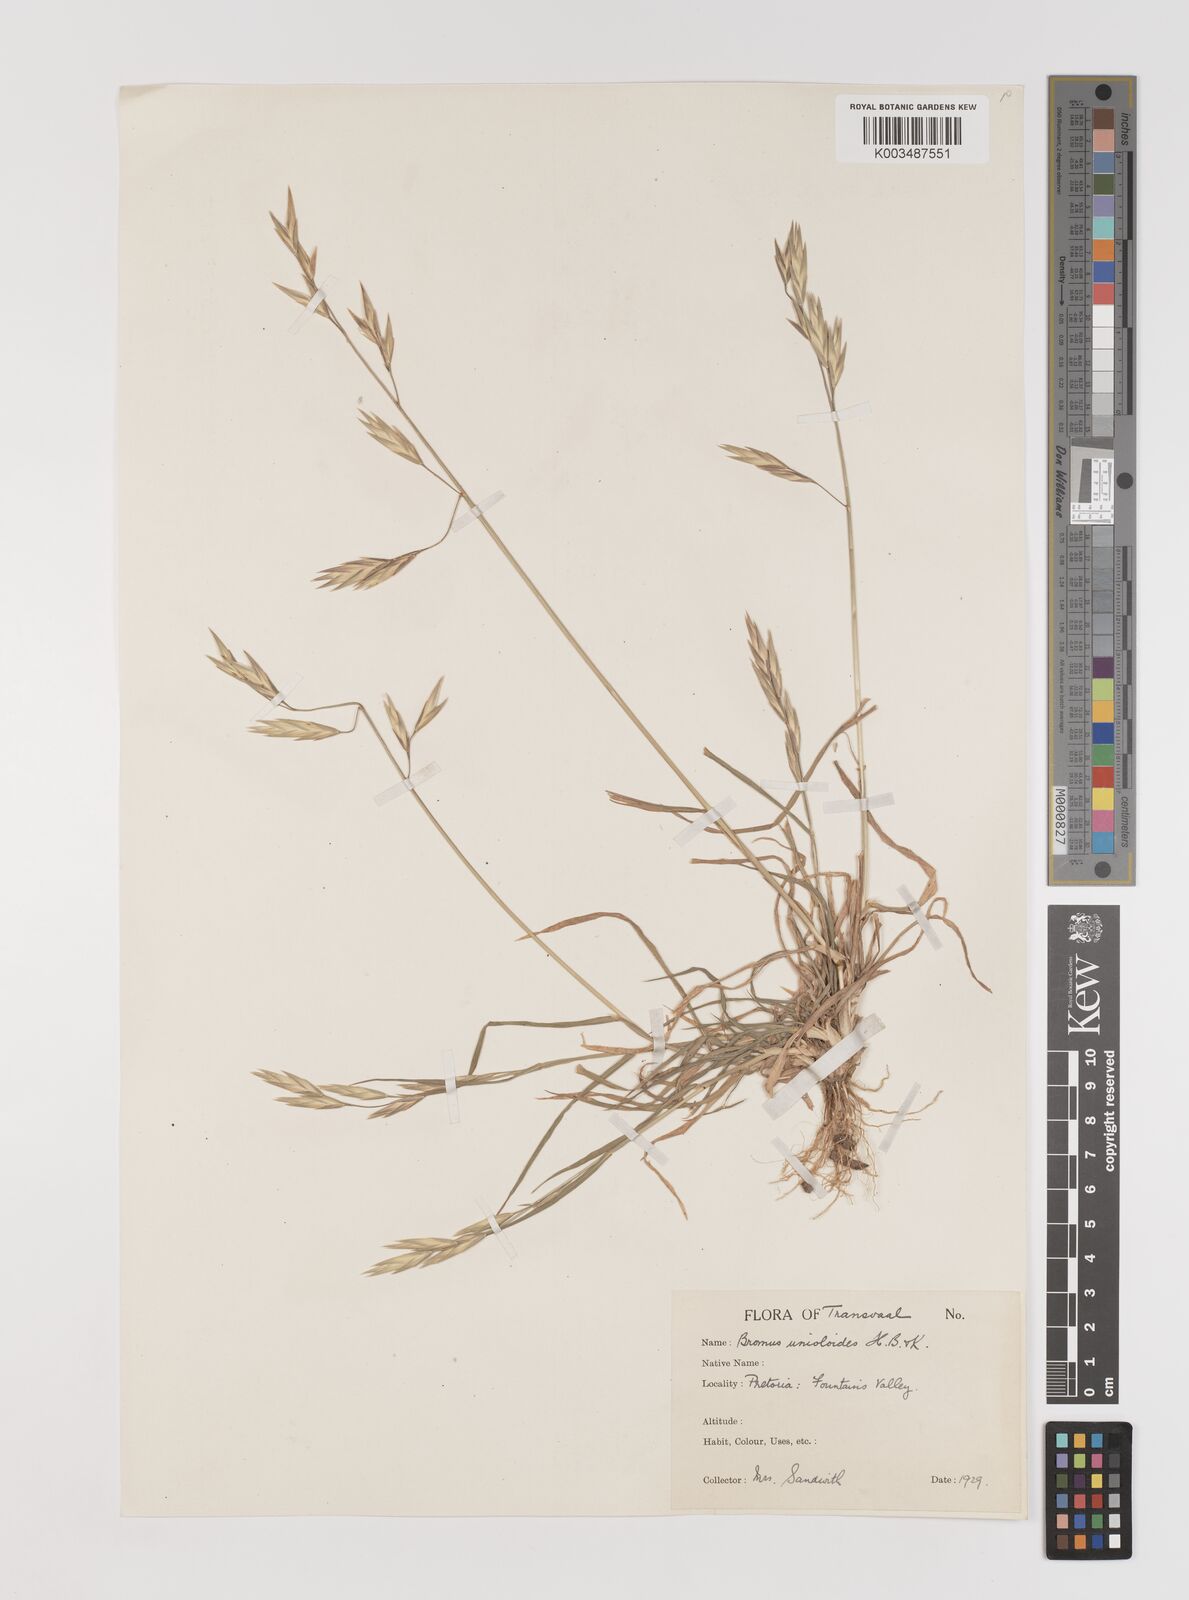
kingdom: Plantae
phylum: Tracheophyta
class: Liliopsida
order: Poales
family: Poaceae
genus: Bromus
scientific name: Bromus catharticus
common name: Rescuegrass
